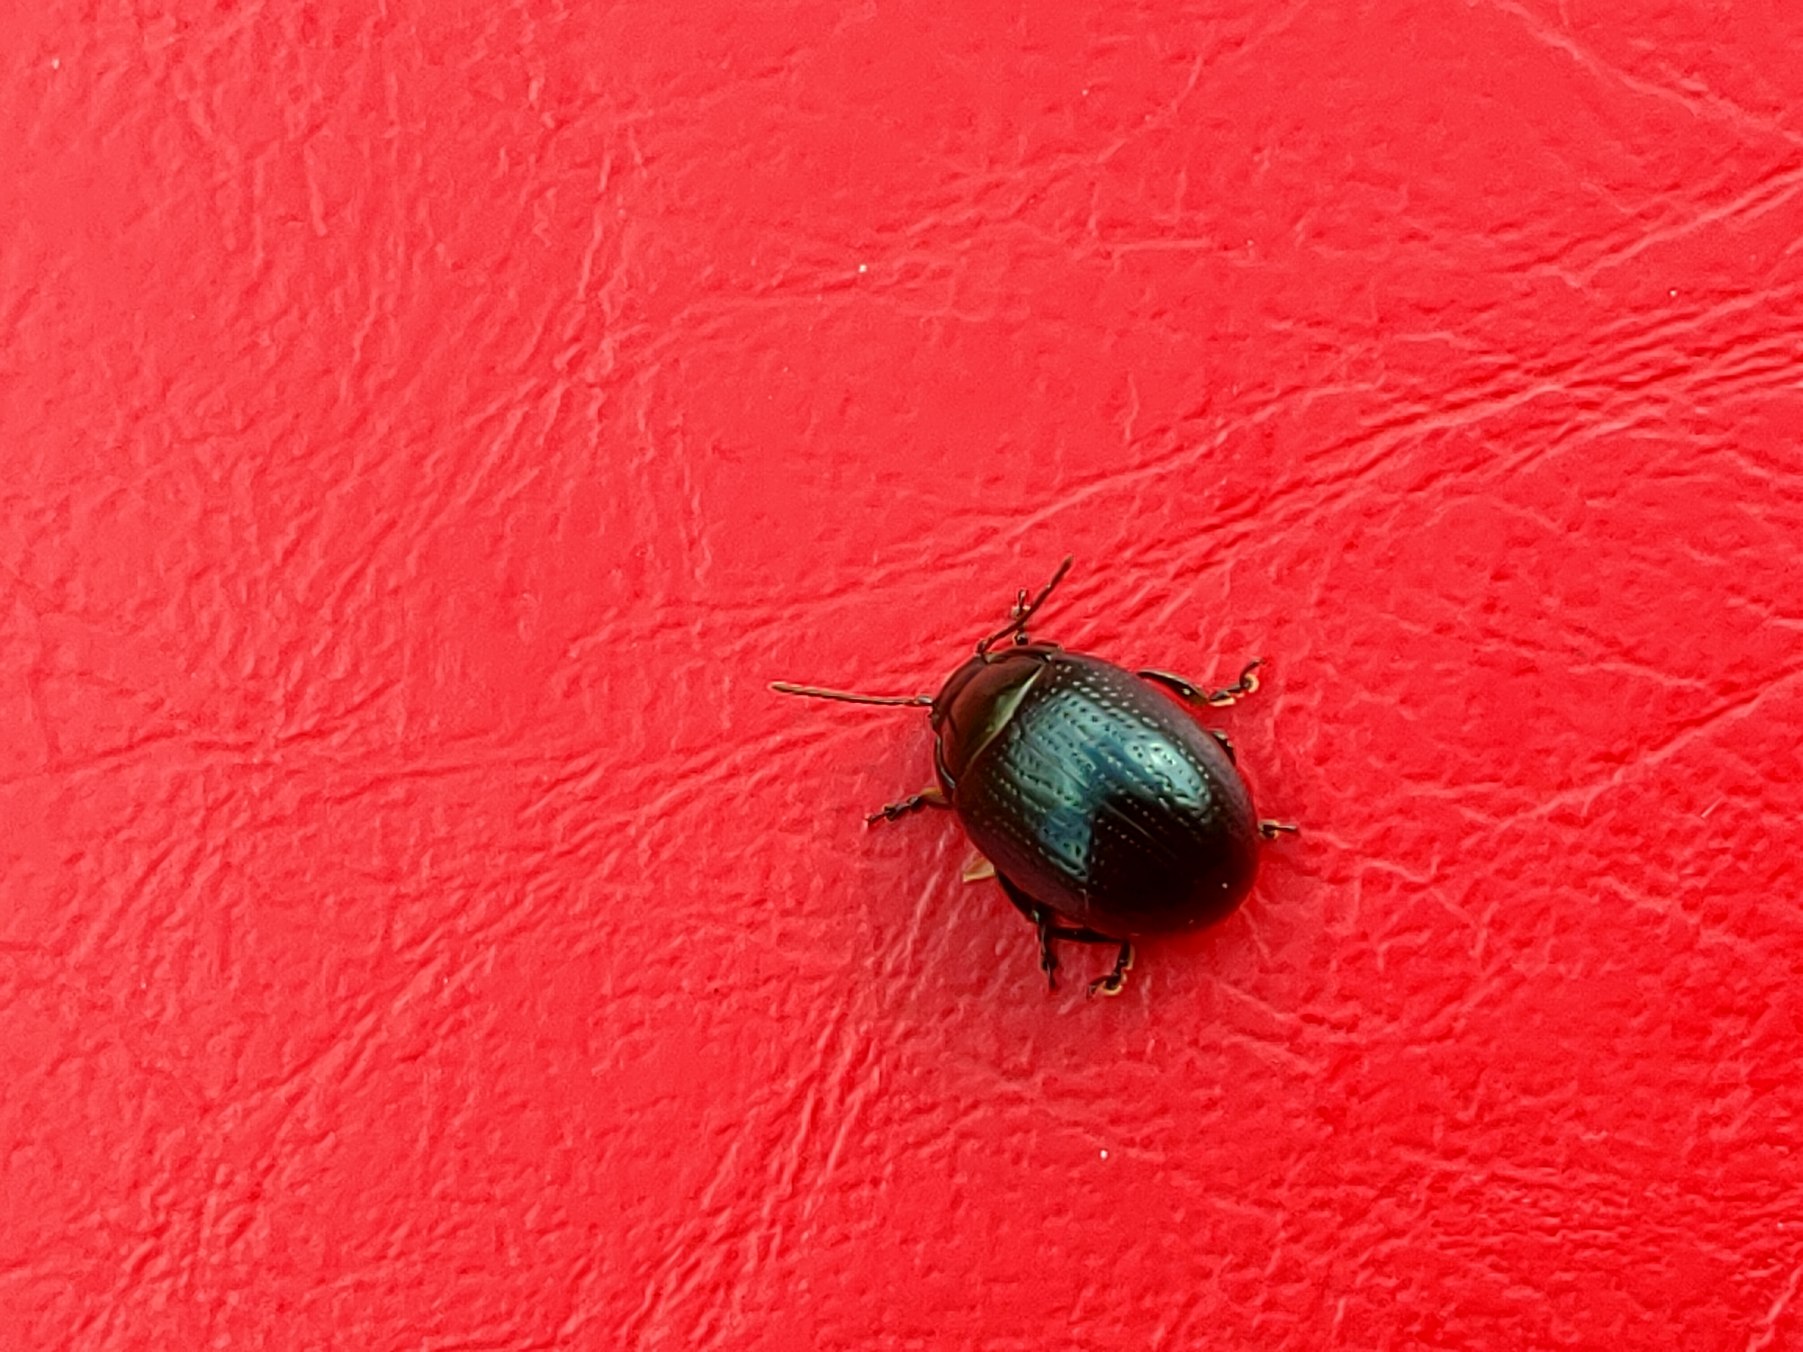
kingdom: Animalia
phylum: Arthropoda
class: Insecta
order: Coleoptera
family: Chrysomelidae
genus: Chrysolina
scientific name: Chrysolina oricalcia
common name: Rækkepunkteret guldbille
